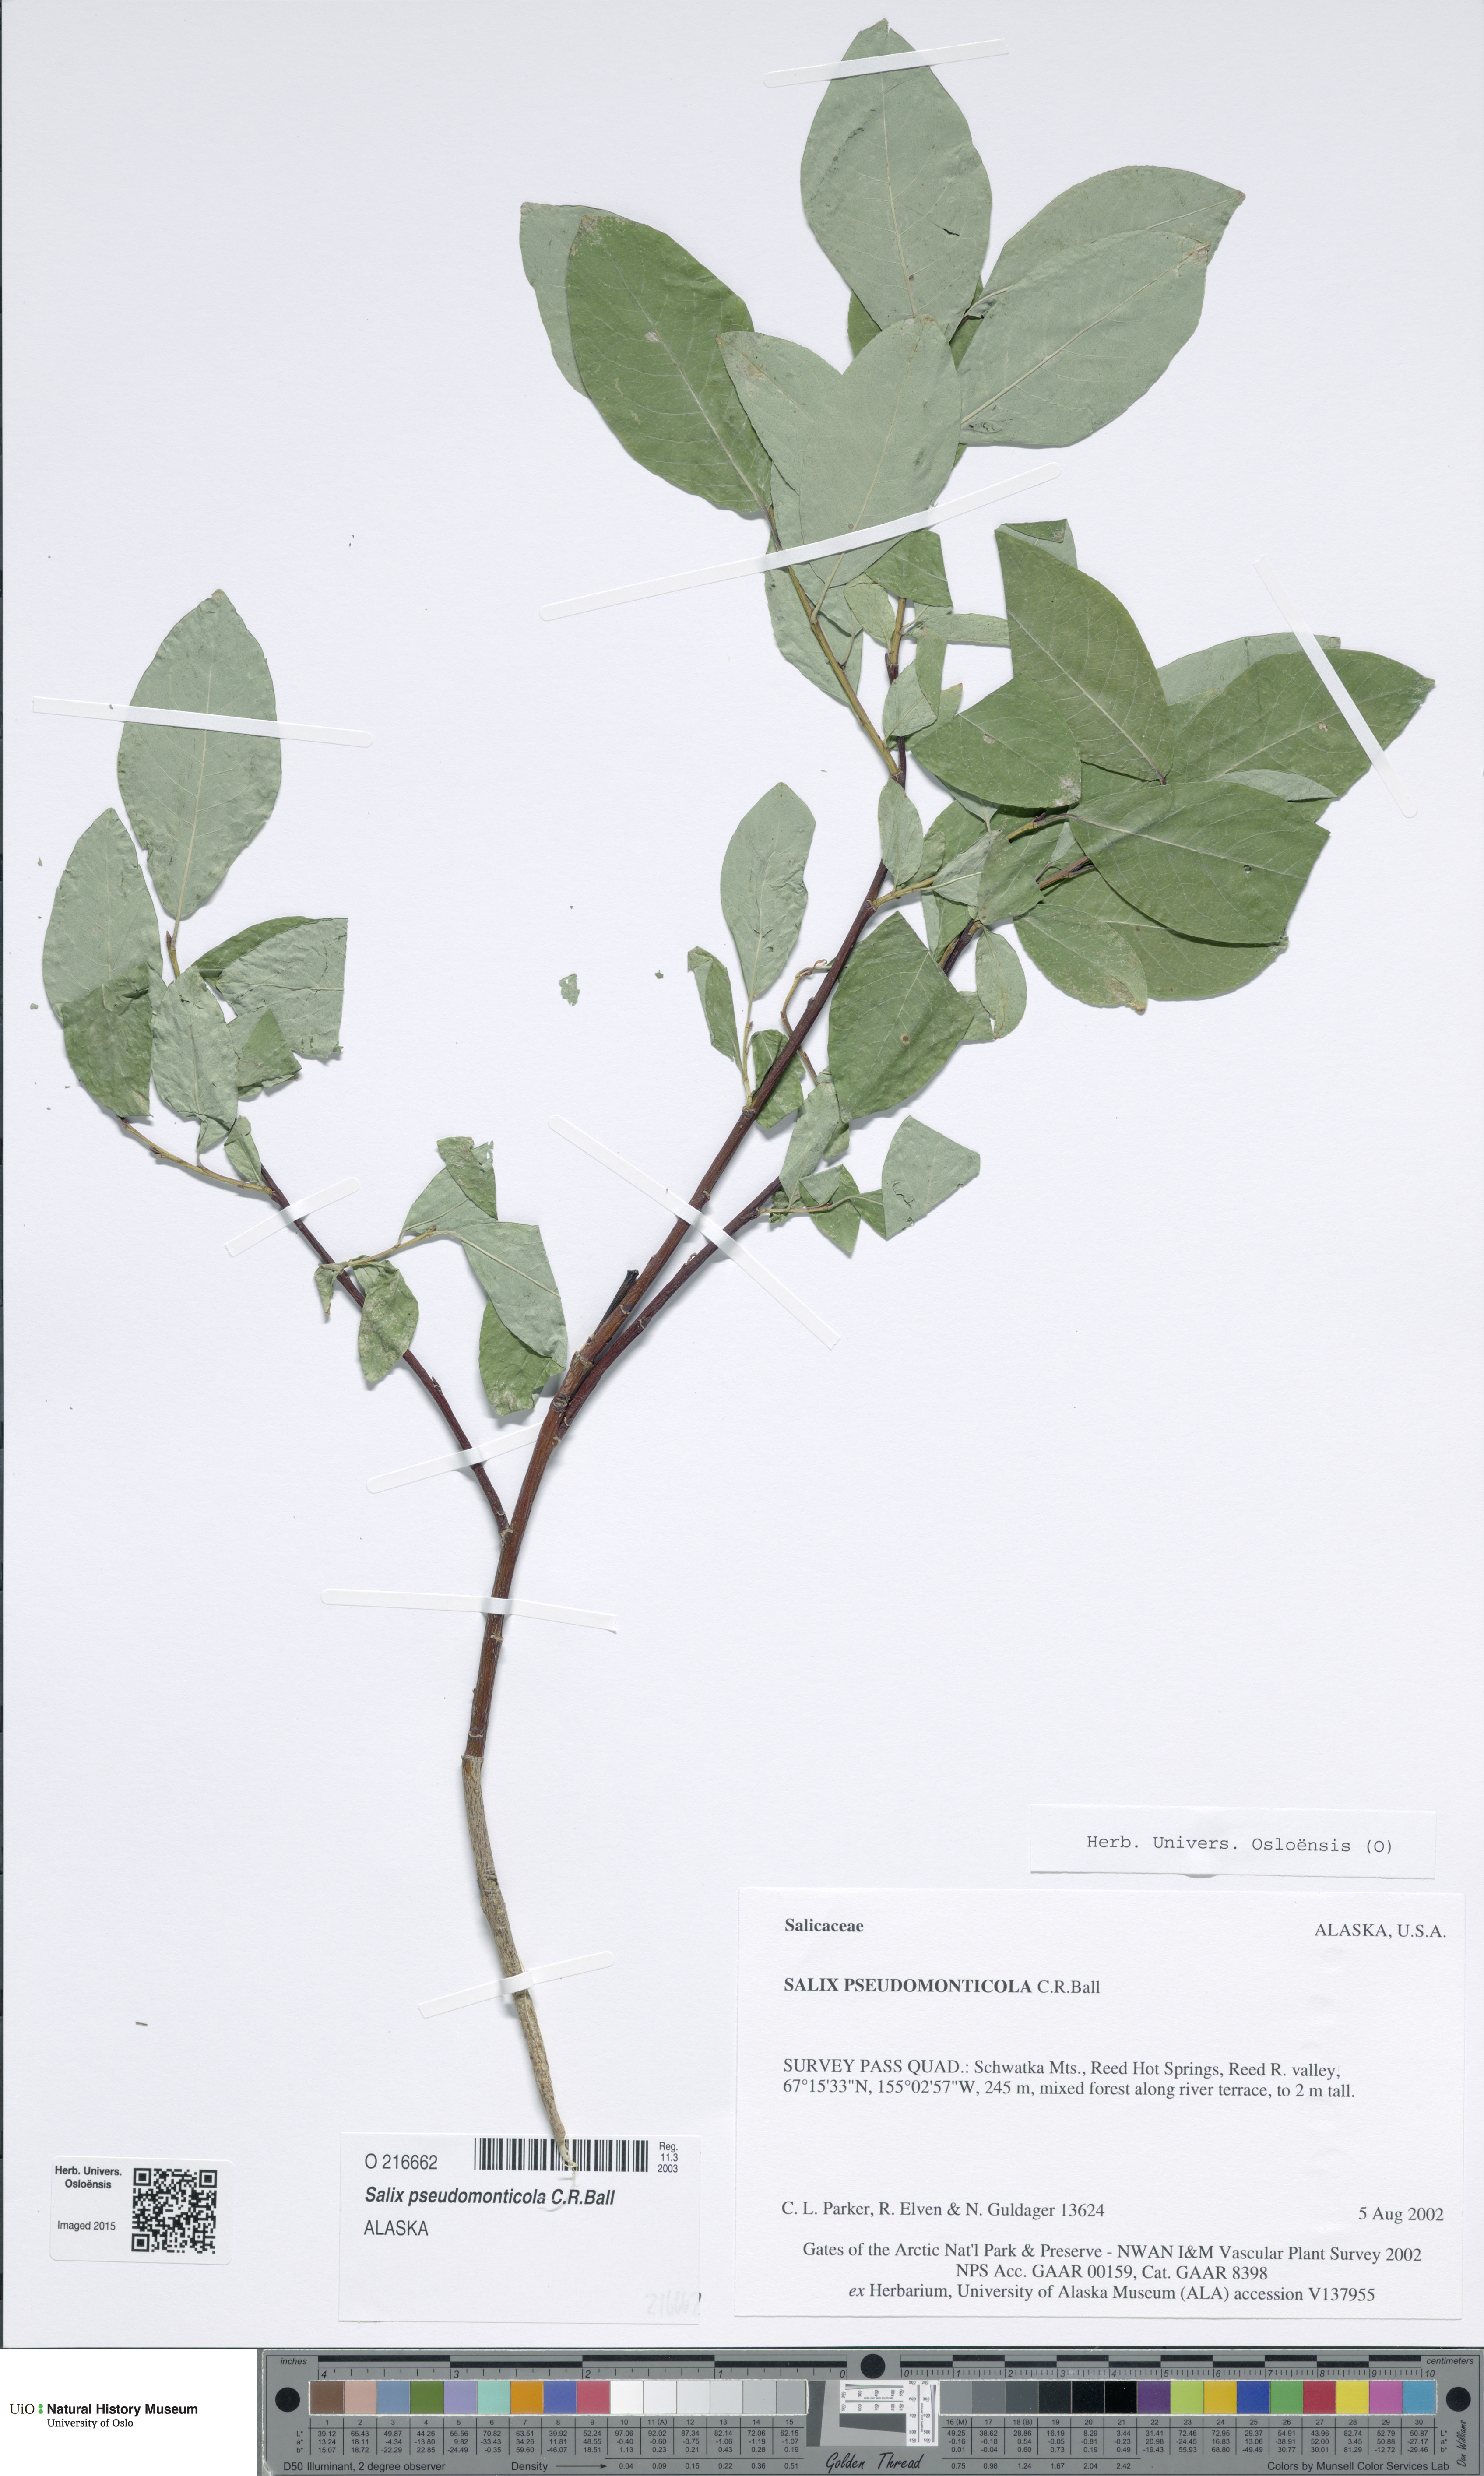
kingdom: Plantae
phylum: Tracheophyta
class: Magnoliopsida
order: Malpighiales
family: Salicaceae
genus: Salix
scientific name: Salix monticola
